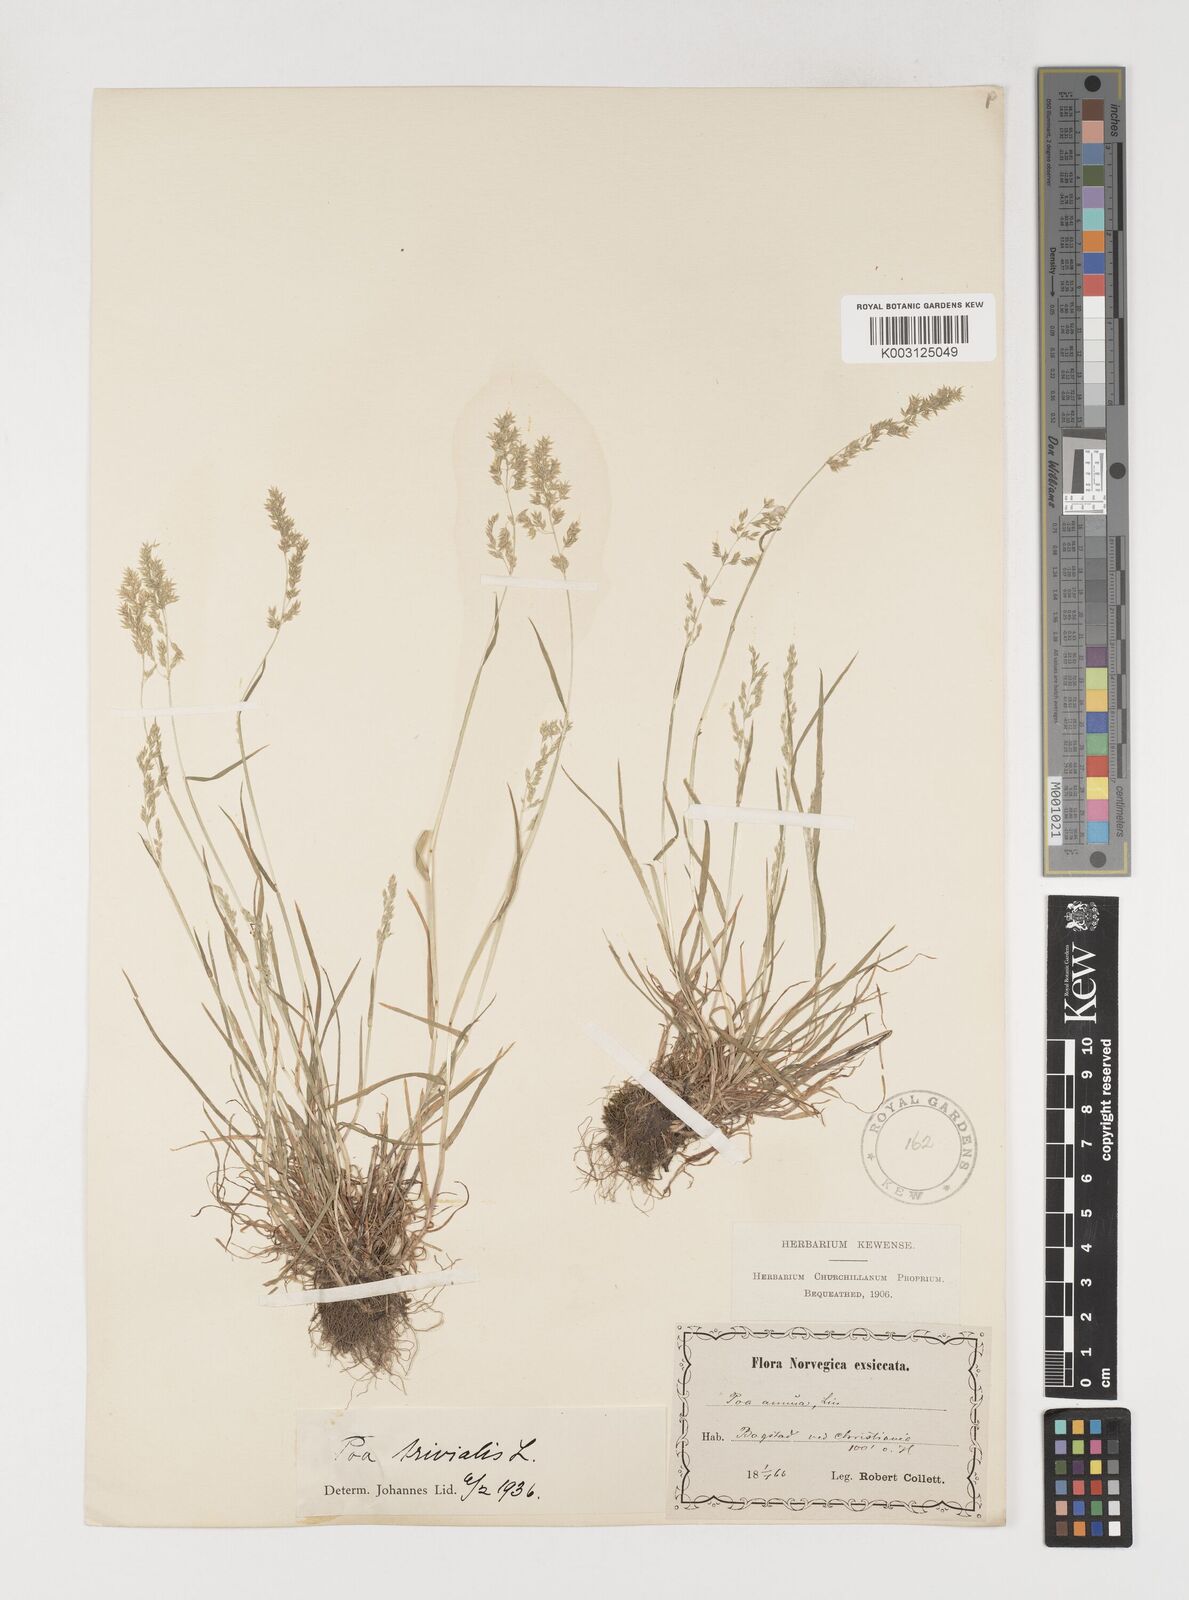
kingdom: Plantae
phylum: Tracheophyta
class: Liliopsida
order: Poales
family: Poaceae
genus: Poa
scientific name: Poa trivialis
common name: Rough bluegrass
